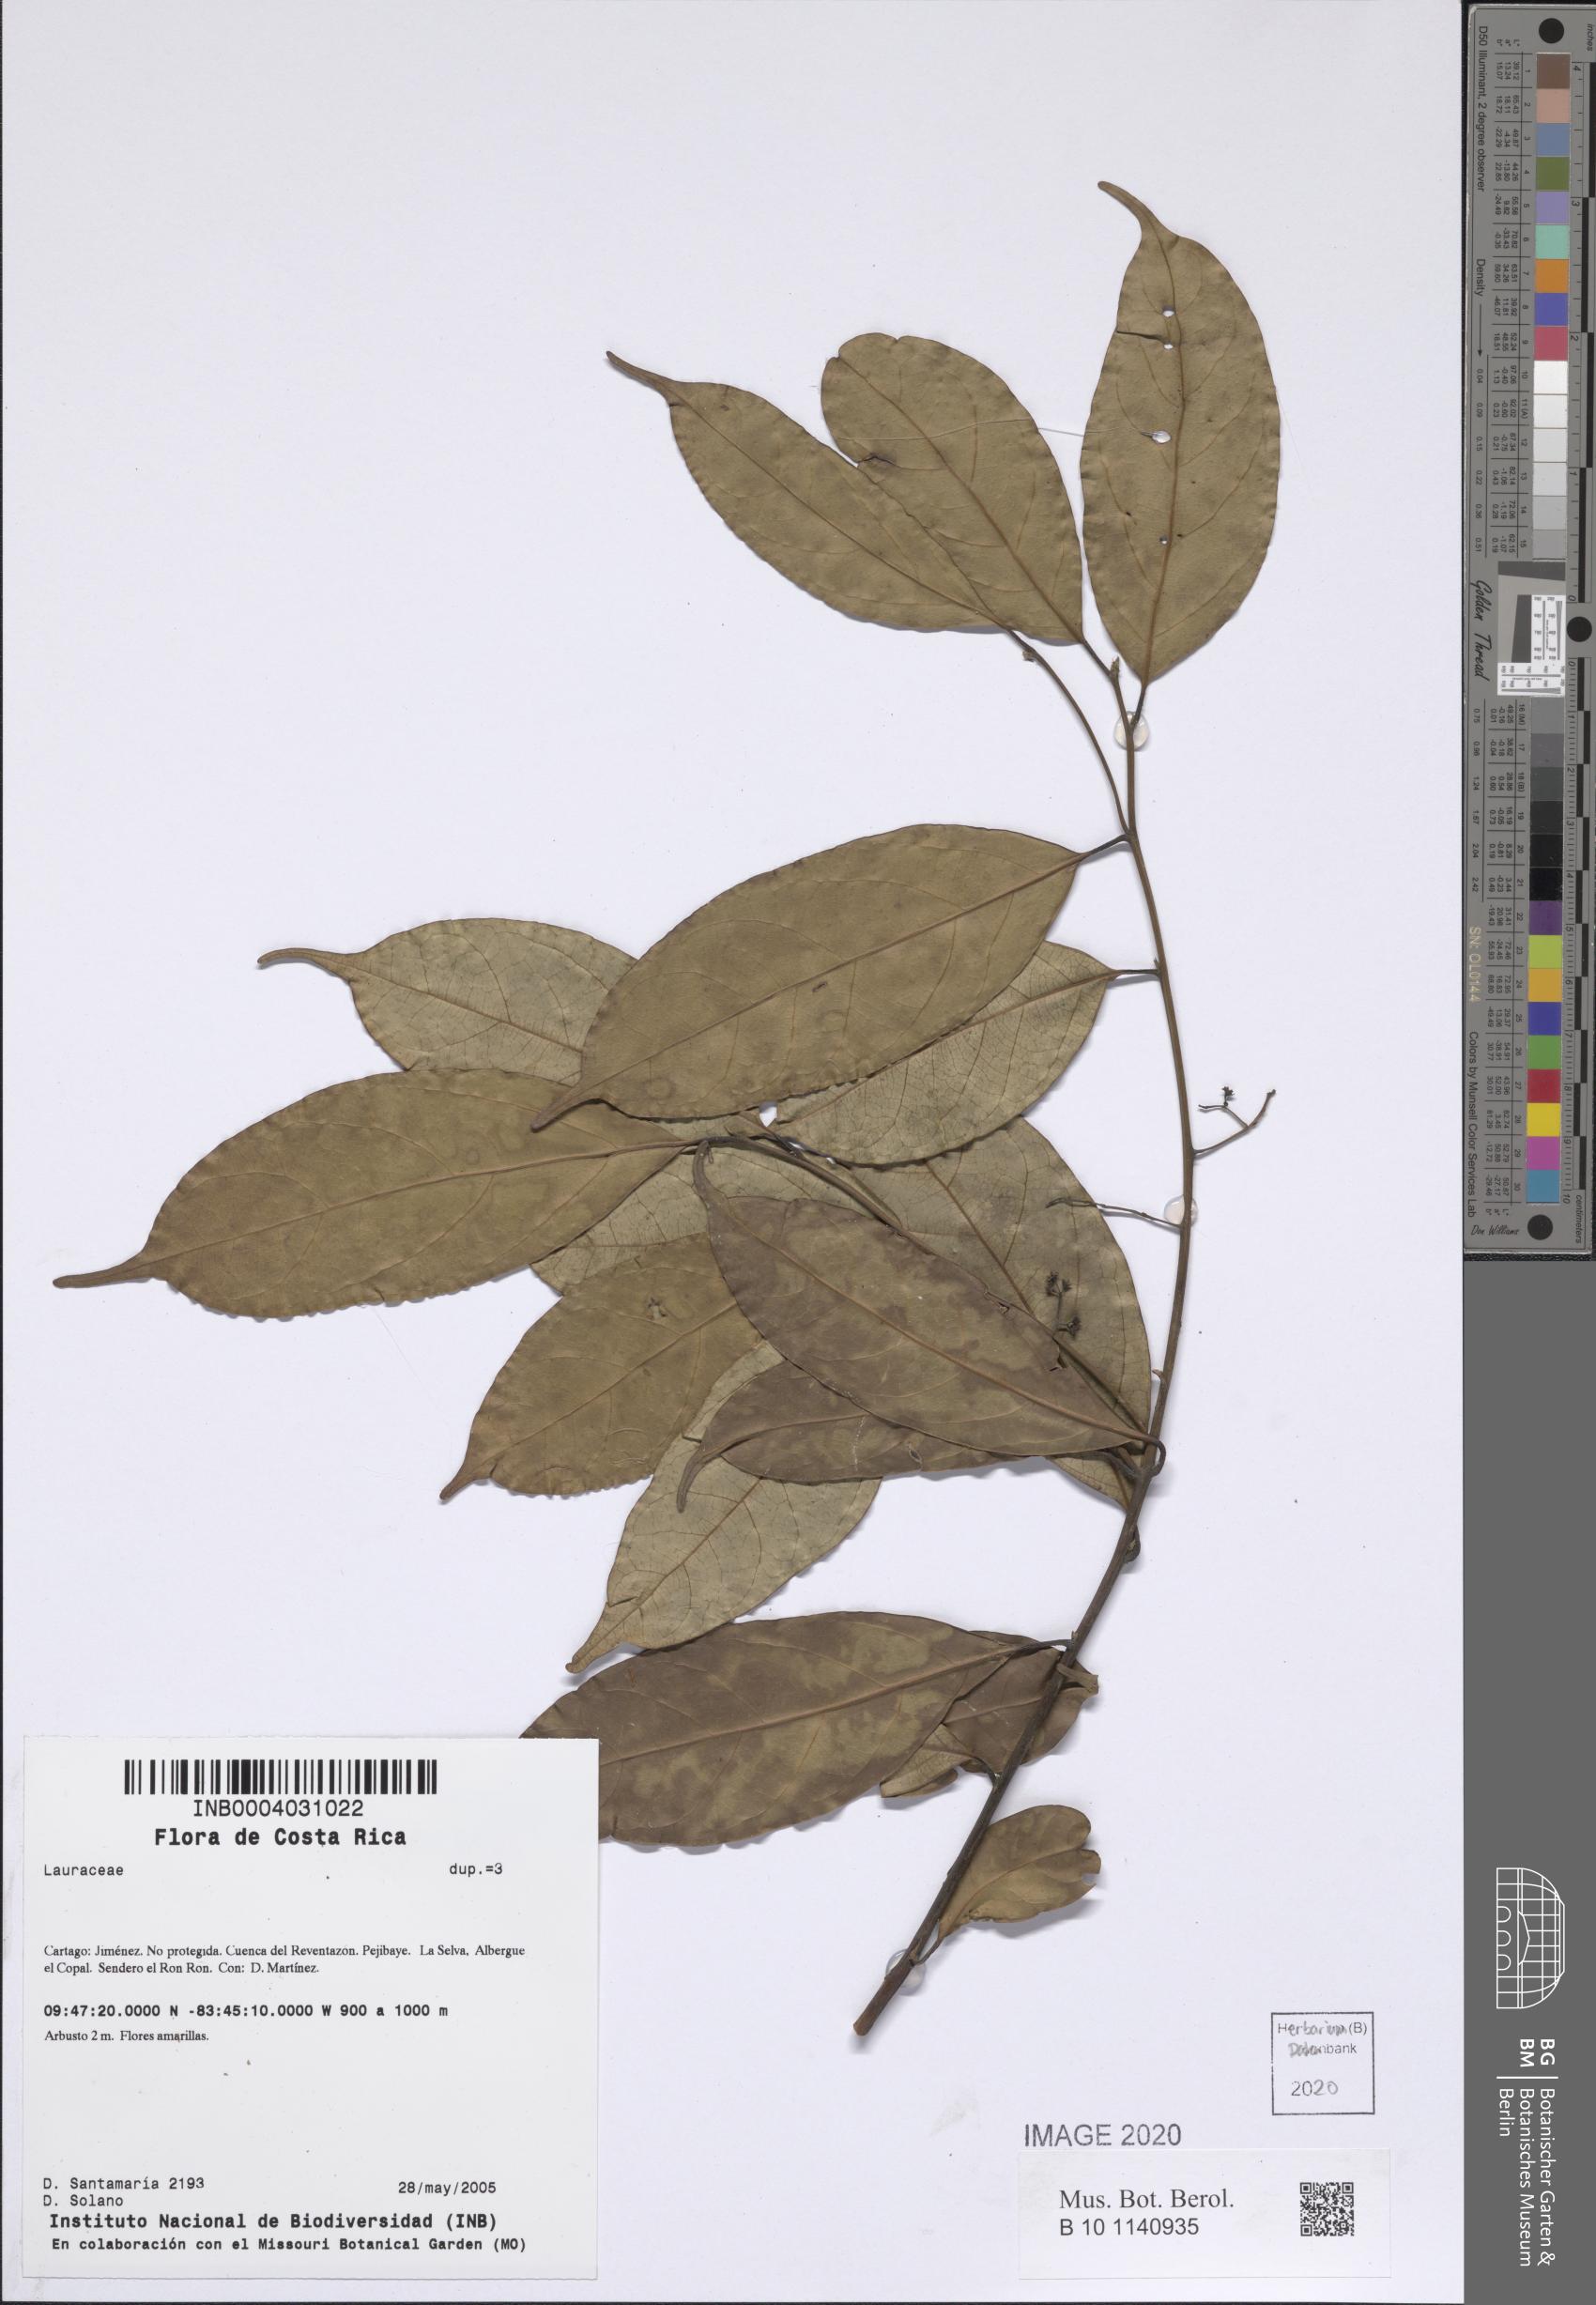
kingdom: Plantae
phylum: Tracheophyta
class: Magnoliopsida
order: Laurales
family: Lauraceae
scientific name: Lauraceae
